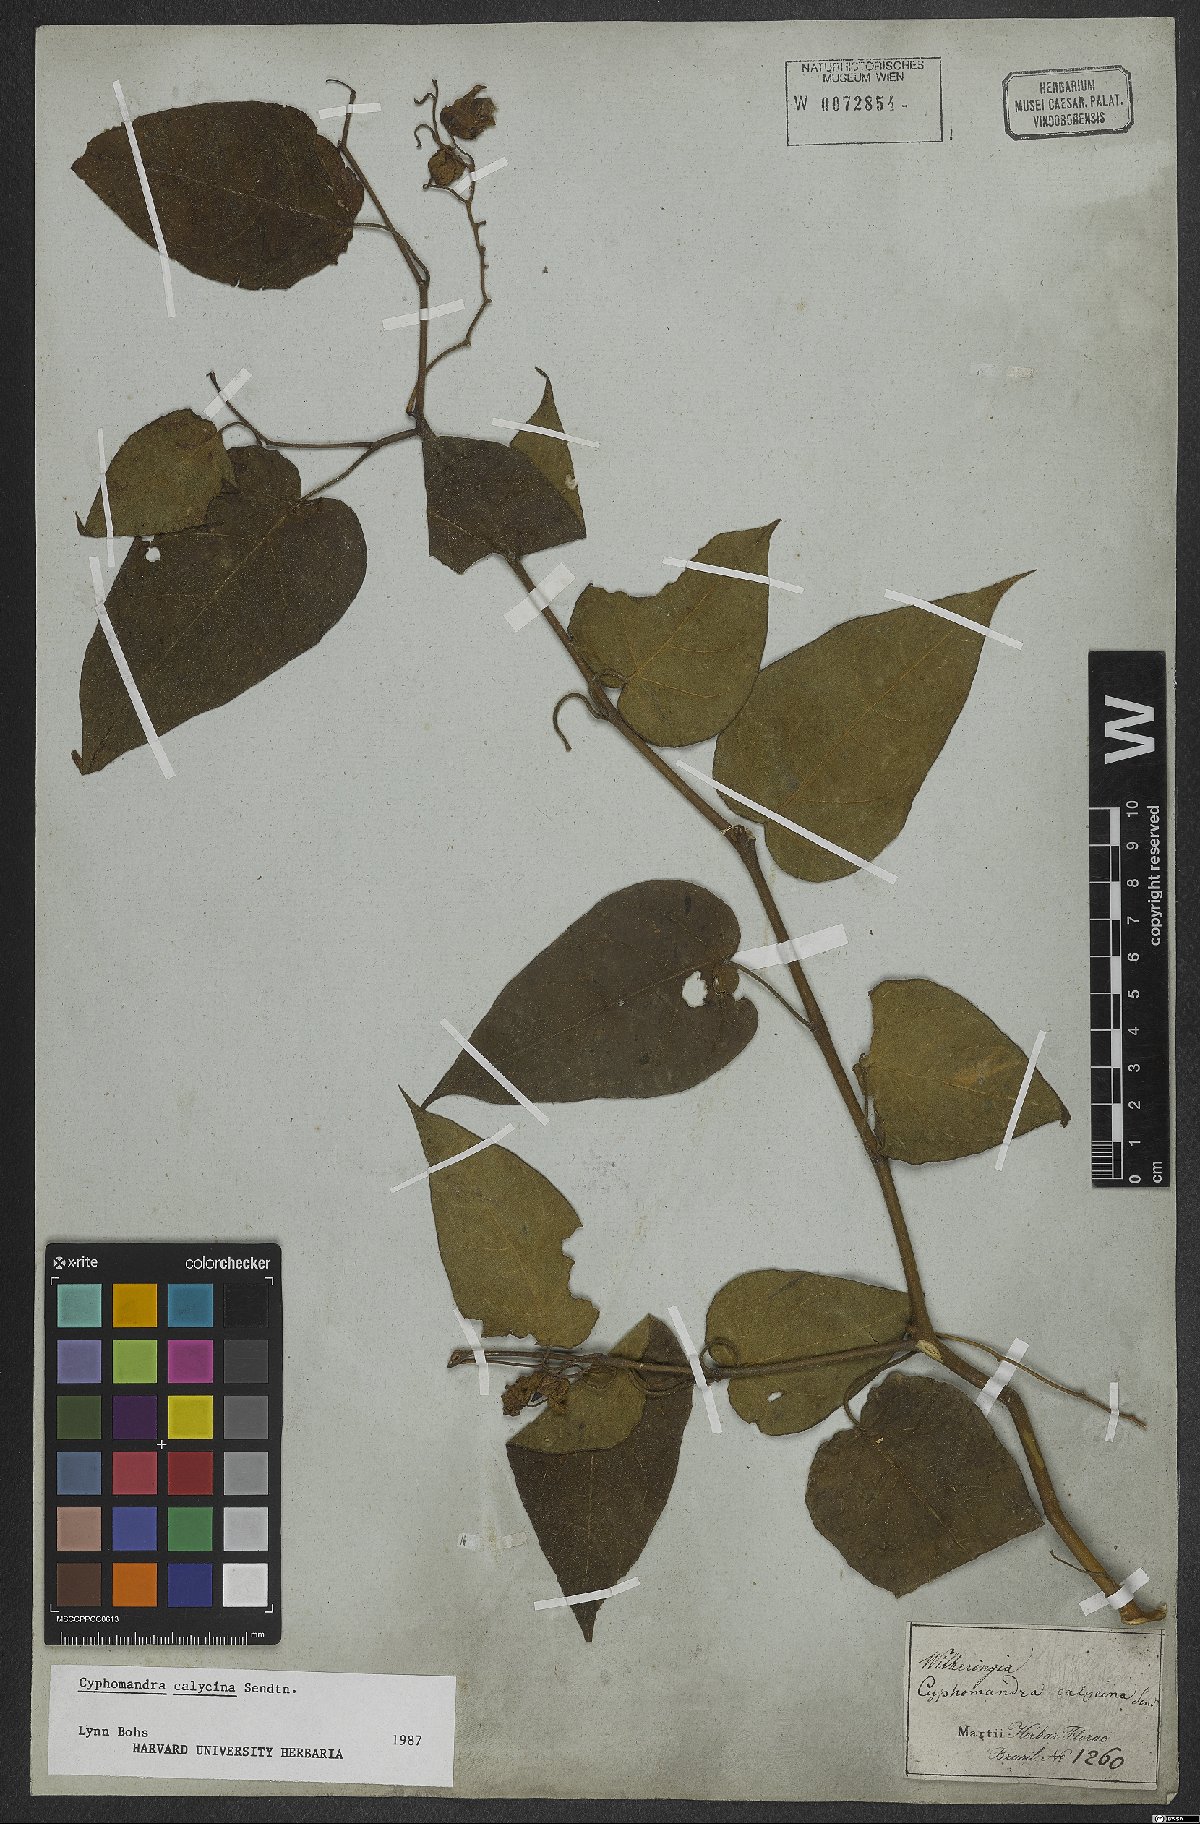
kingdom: Plantae
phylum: Tracheophyta
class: Magnoliopsida
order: Solanales
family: Solanaceae
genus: Solanum
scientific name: Solanum latiflorum
